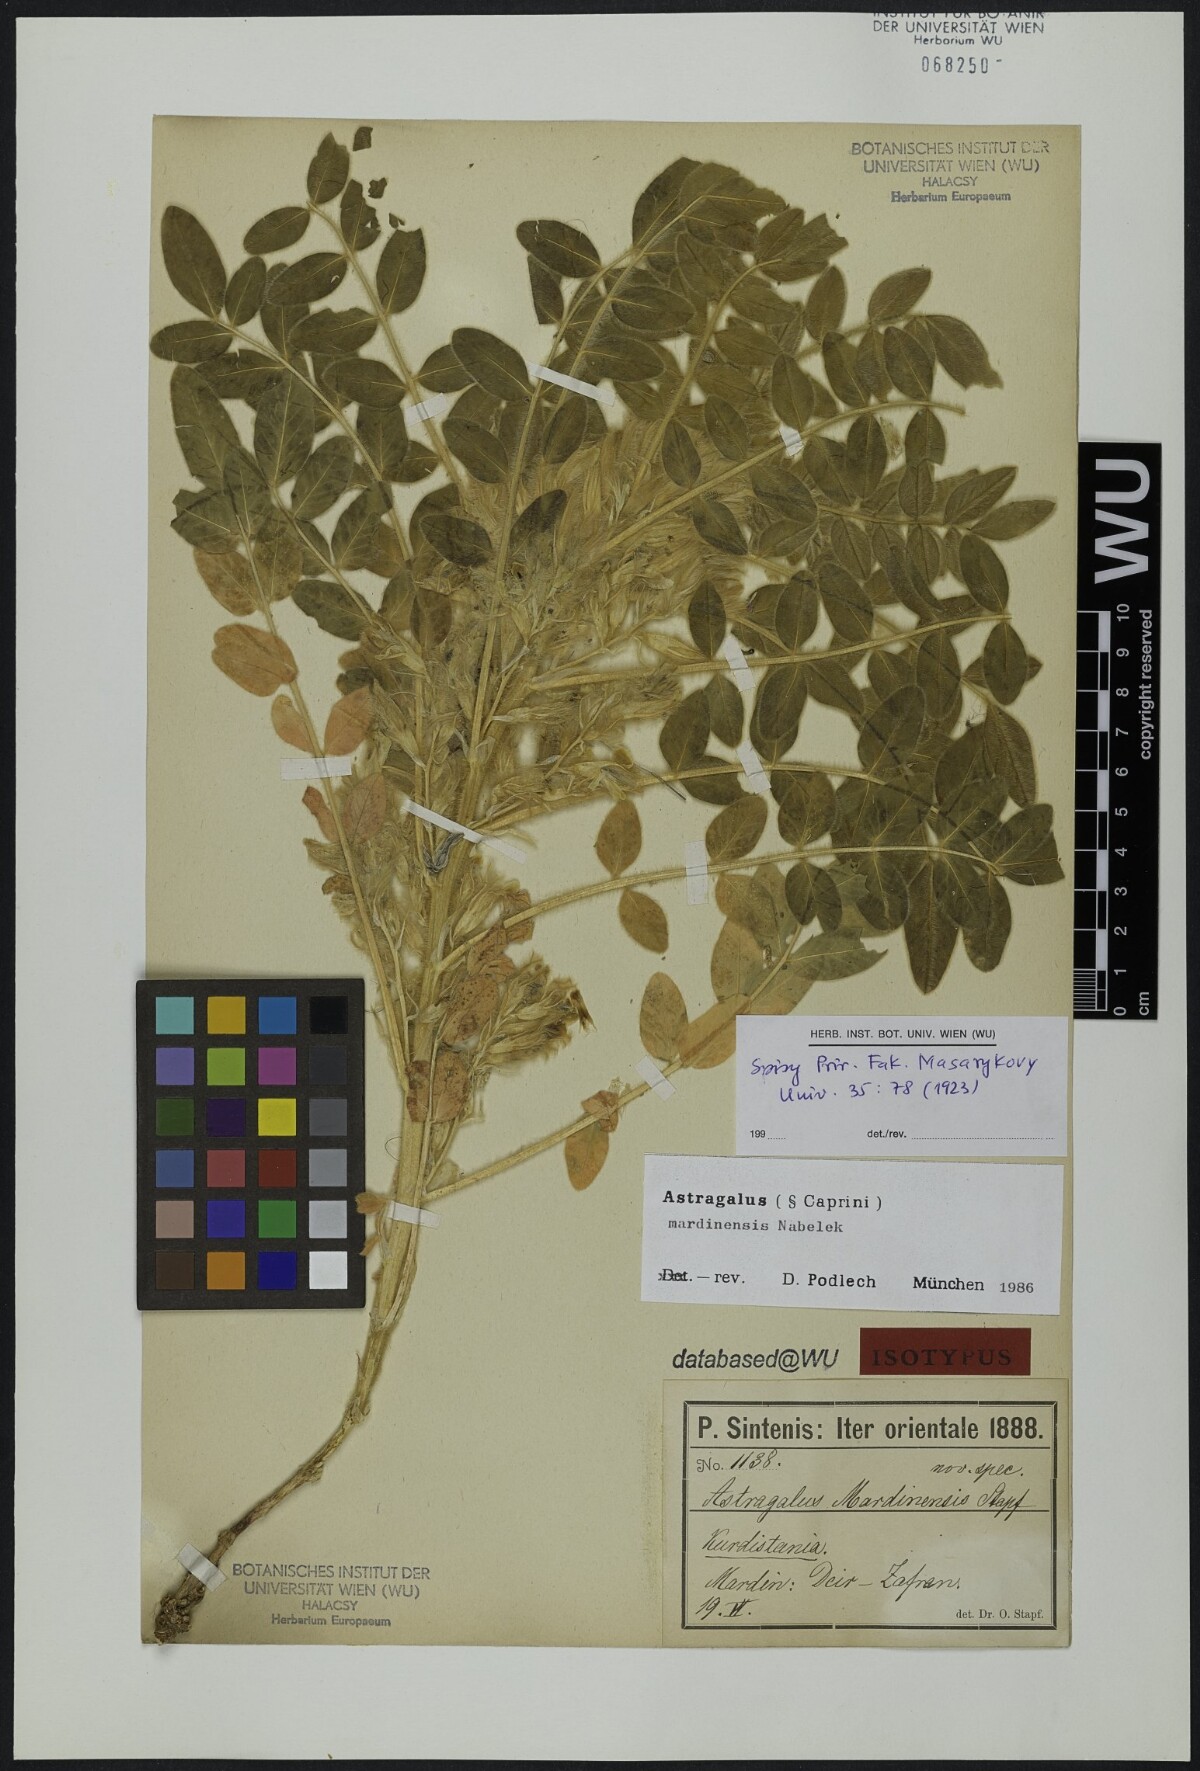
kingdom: Plantae
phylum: Tracheophyta
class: Magnoliopsida
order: Fabales
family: Fabaceae
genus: Astragalus
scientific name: Astragalus mardinensis
